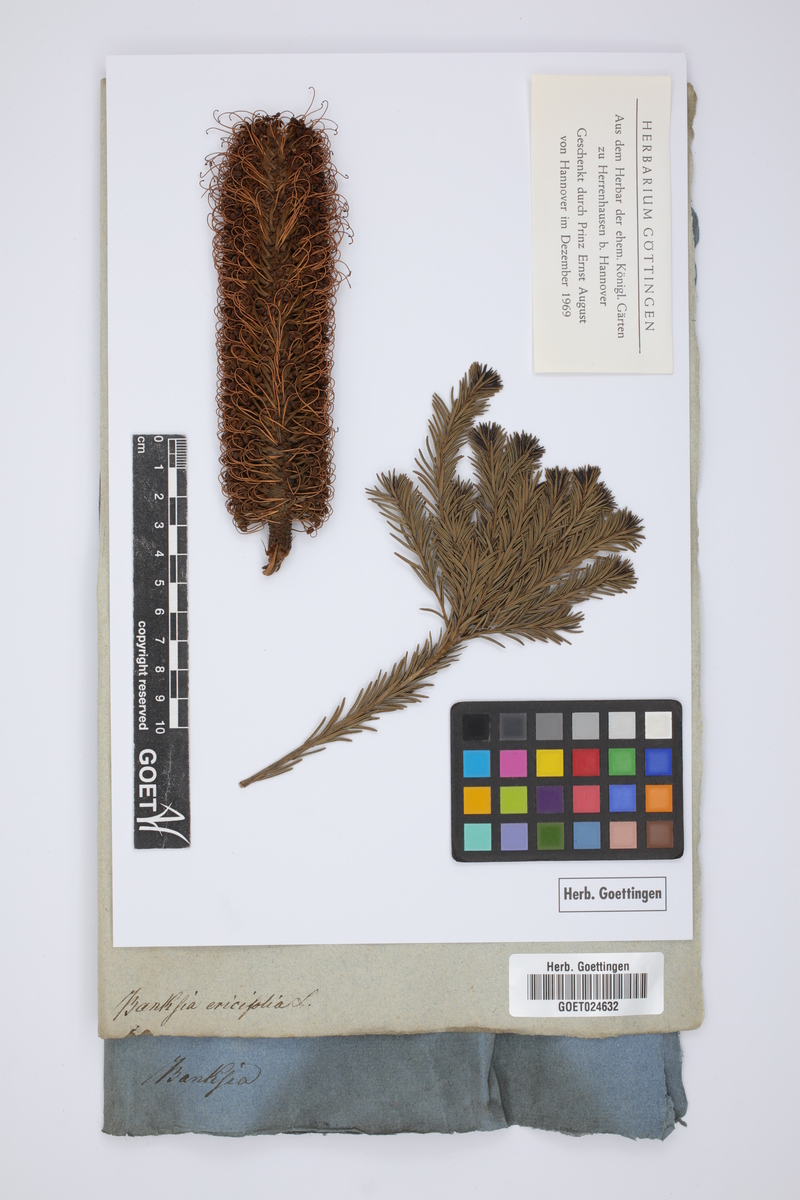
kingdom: Plantae
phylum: Tracheophyta
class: Magnoliopsida
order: Proteales
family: Proteaceae
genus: Banksia
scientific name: Banksia ericifolia
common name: Heath-leaf banksia
